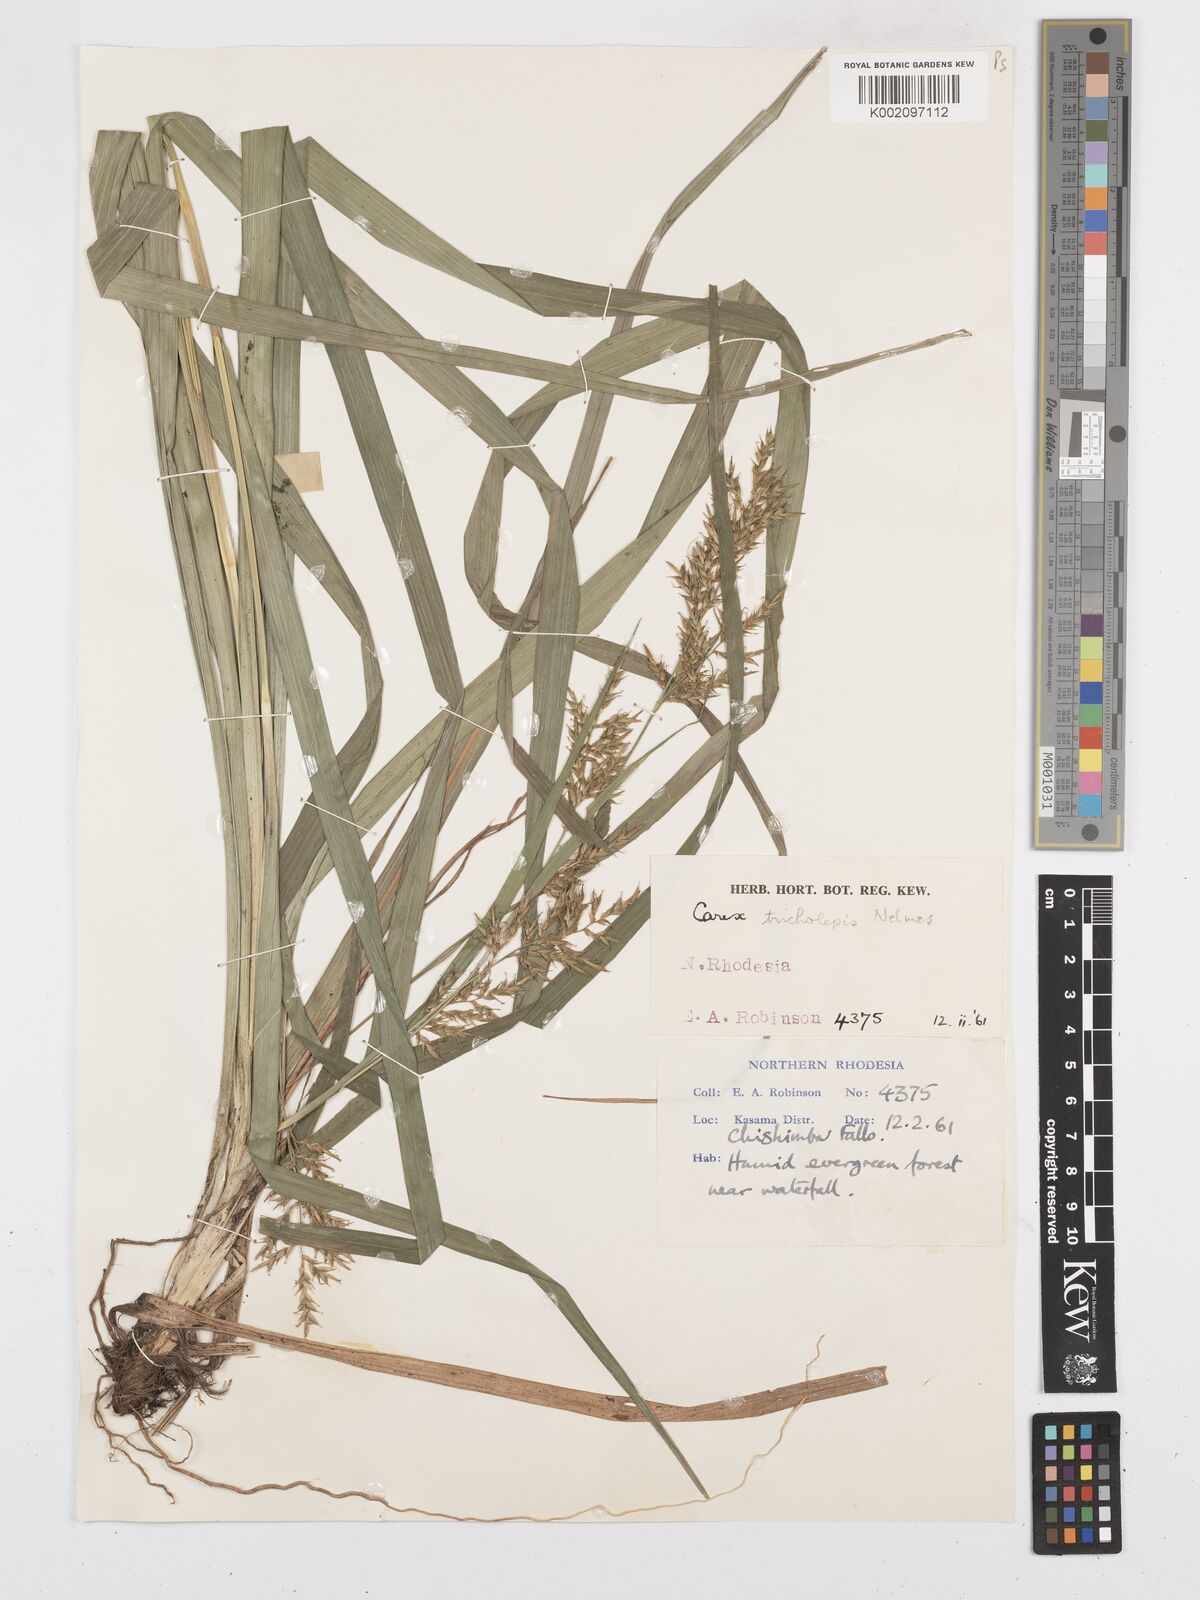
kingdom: Plantae
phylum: Tracheophyta
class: Liliopsida
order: Poales
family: Cyperaceae
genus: Carex
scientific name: Carex tricholepis
